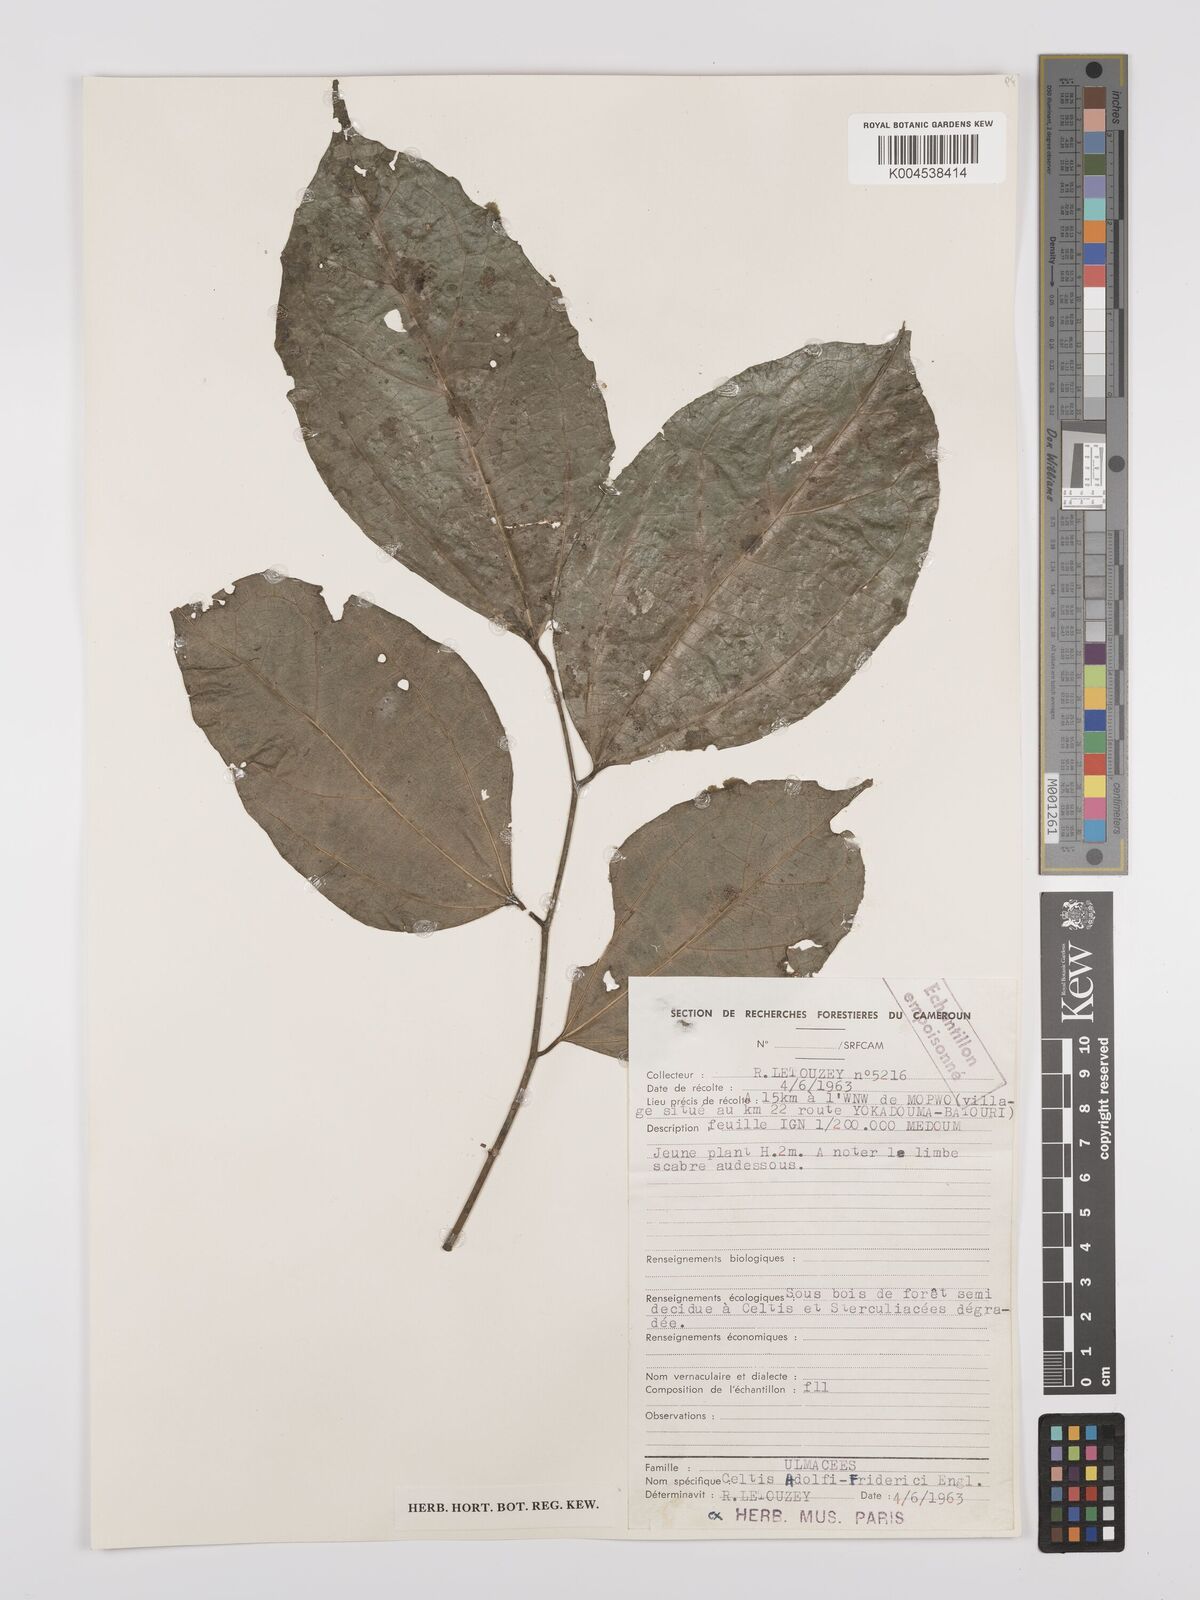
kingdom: Plantae
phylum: Tracheophyta
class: Magnoliopsida
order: Rosales
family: Cannabaceae
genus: Celtis
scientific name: Celtis adolfi-friderici
